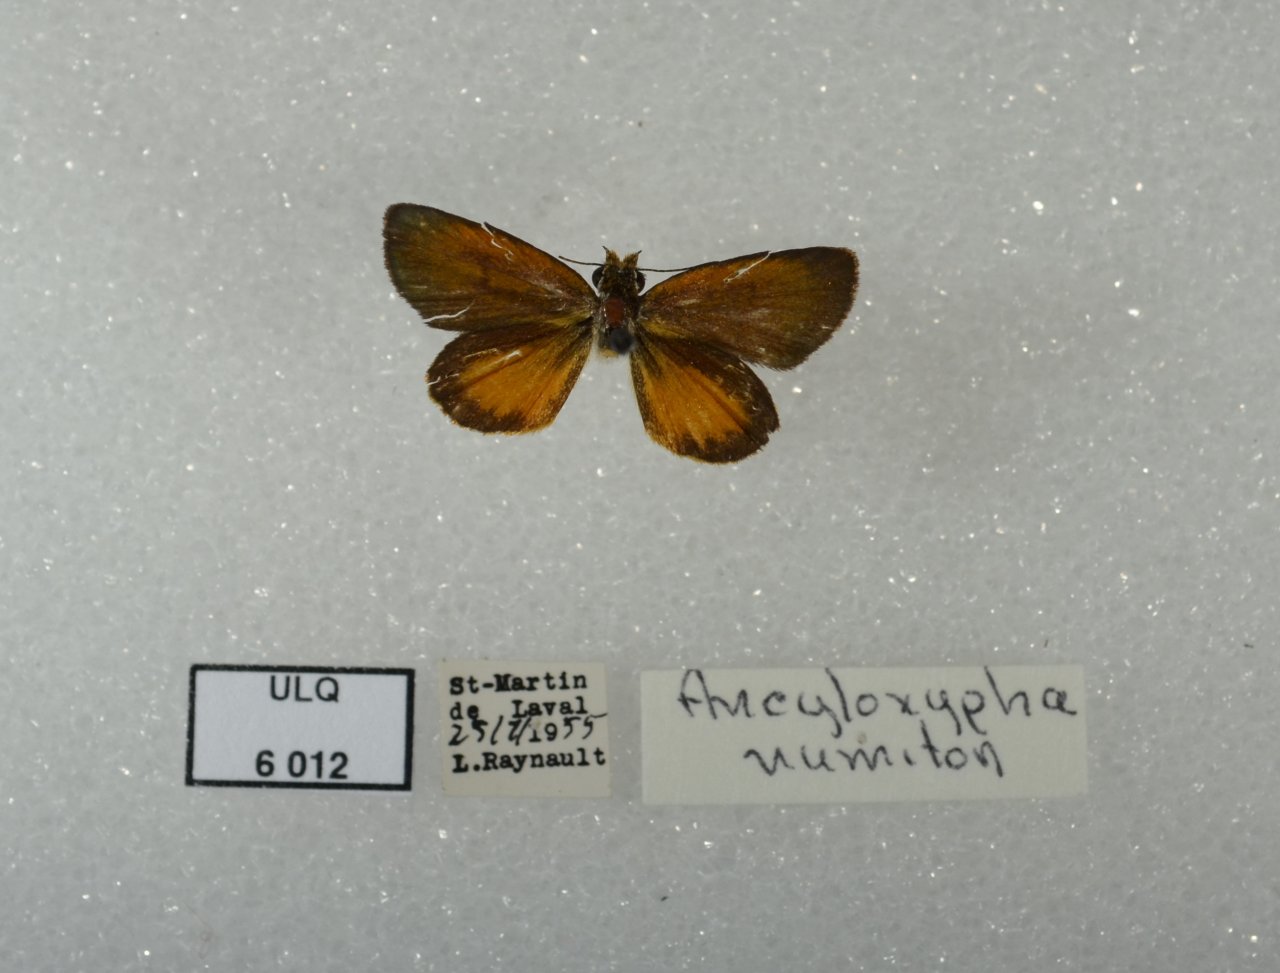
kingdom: Animalia
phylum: Arthropoda
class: Insecta
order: Lepidoptera
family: Hesperiidae
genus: Ancyloxypha
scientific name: Ancyloxypha numitor
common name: Least Skipper
